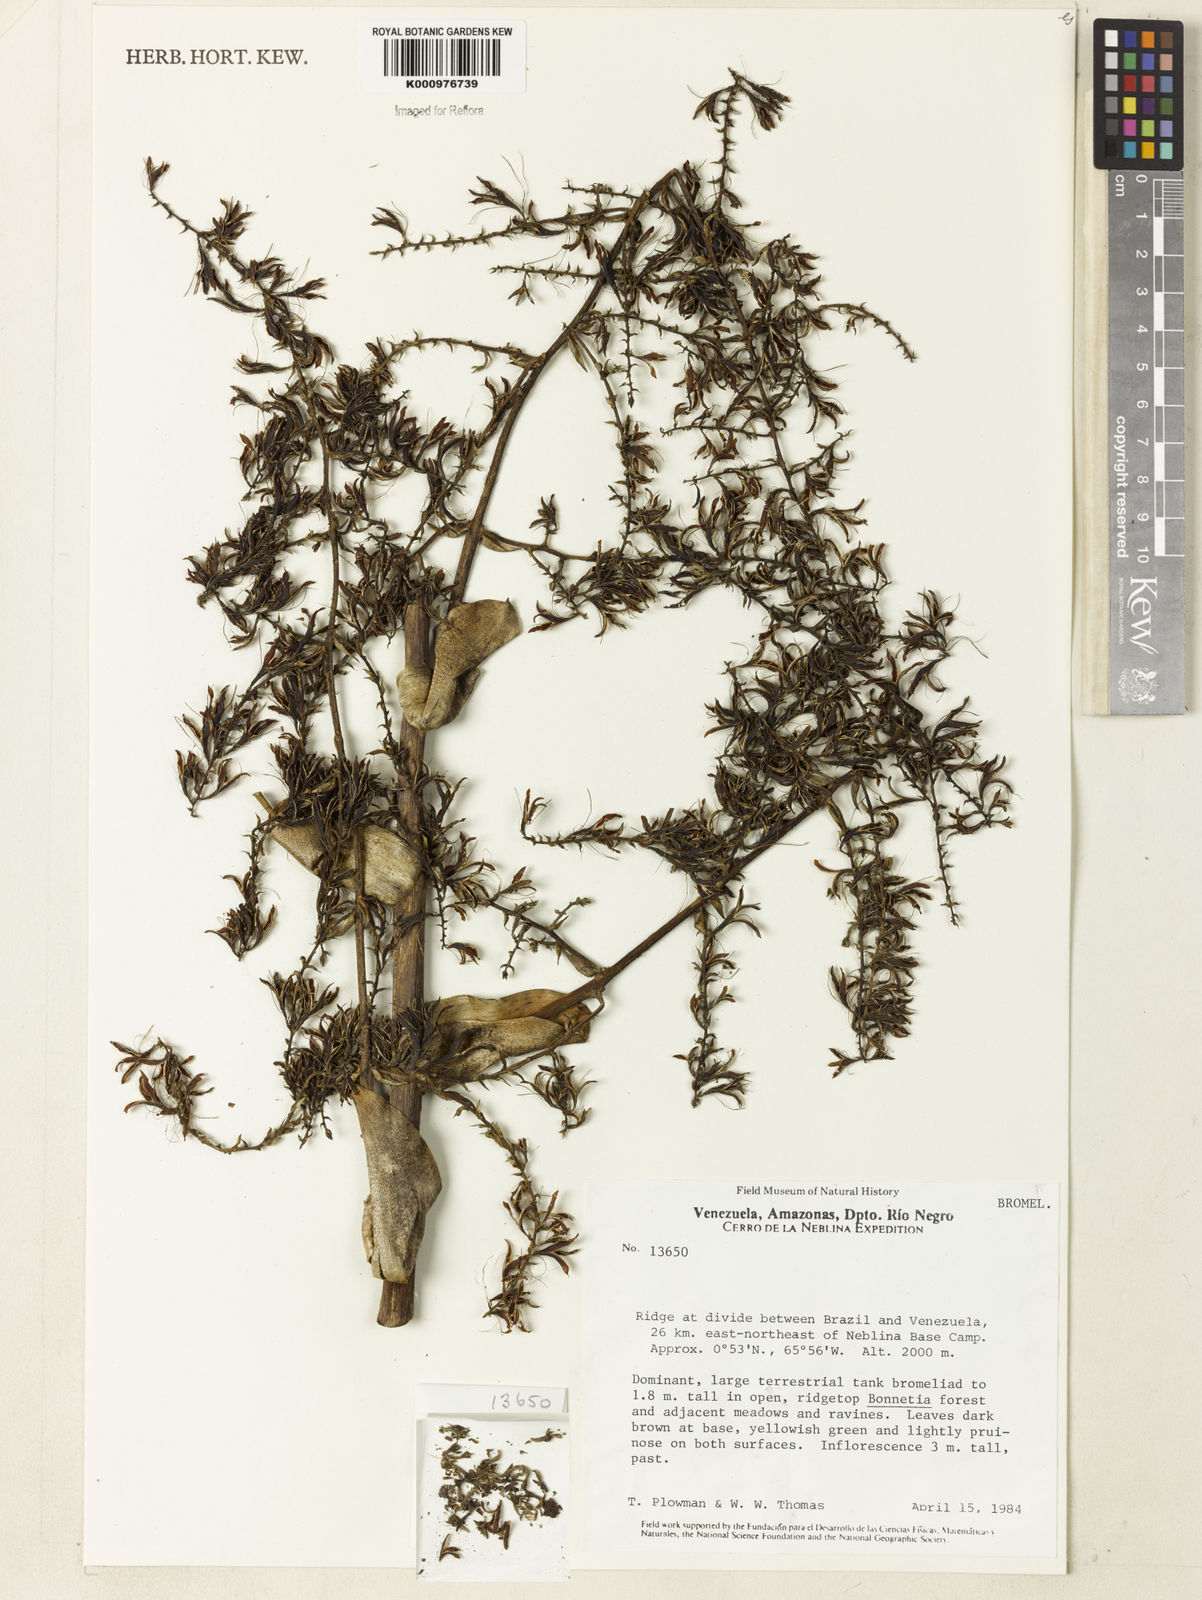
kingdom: Plantae
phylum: Tracheophyta
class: Liliopsida
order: Poales
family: Bromeliaceae
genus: Billbergia
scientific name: Billbergia
